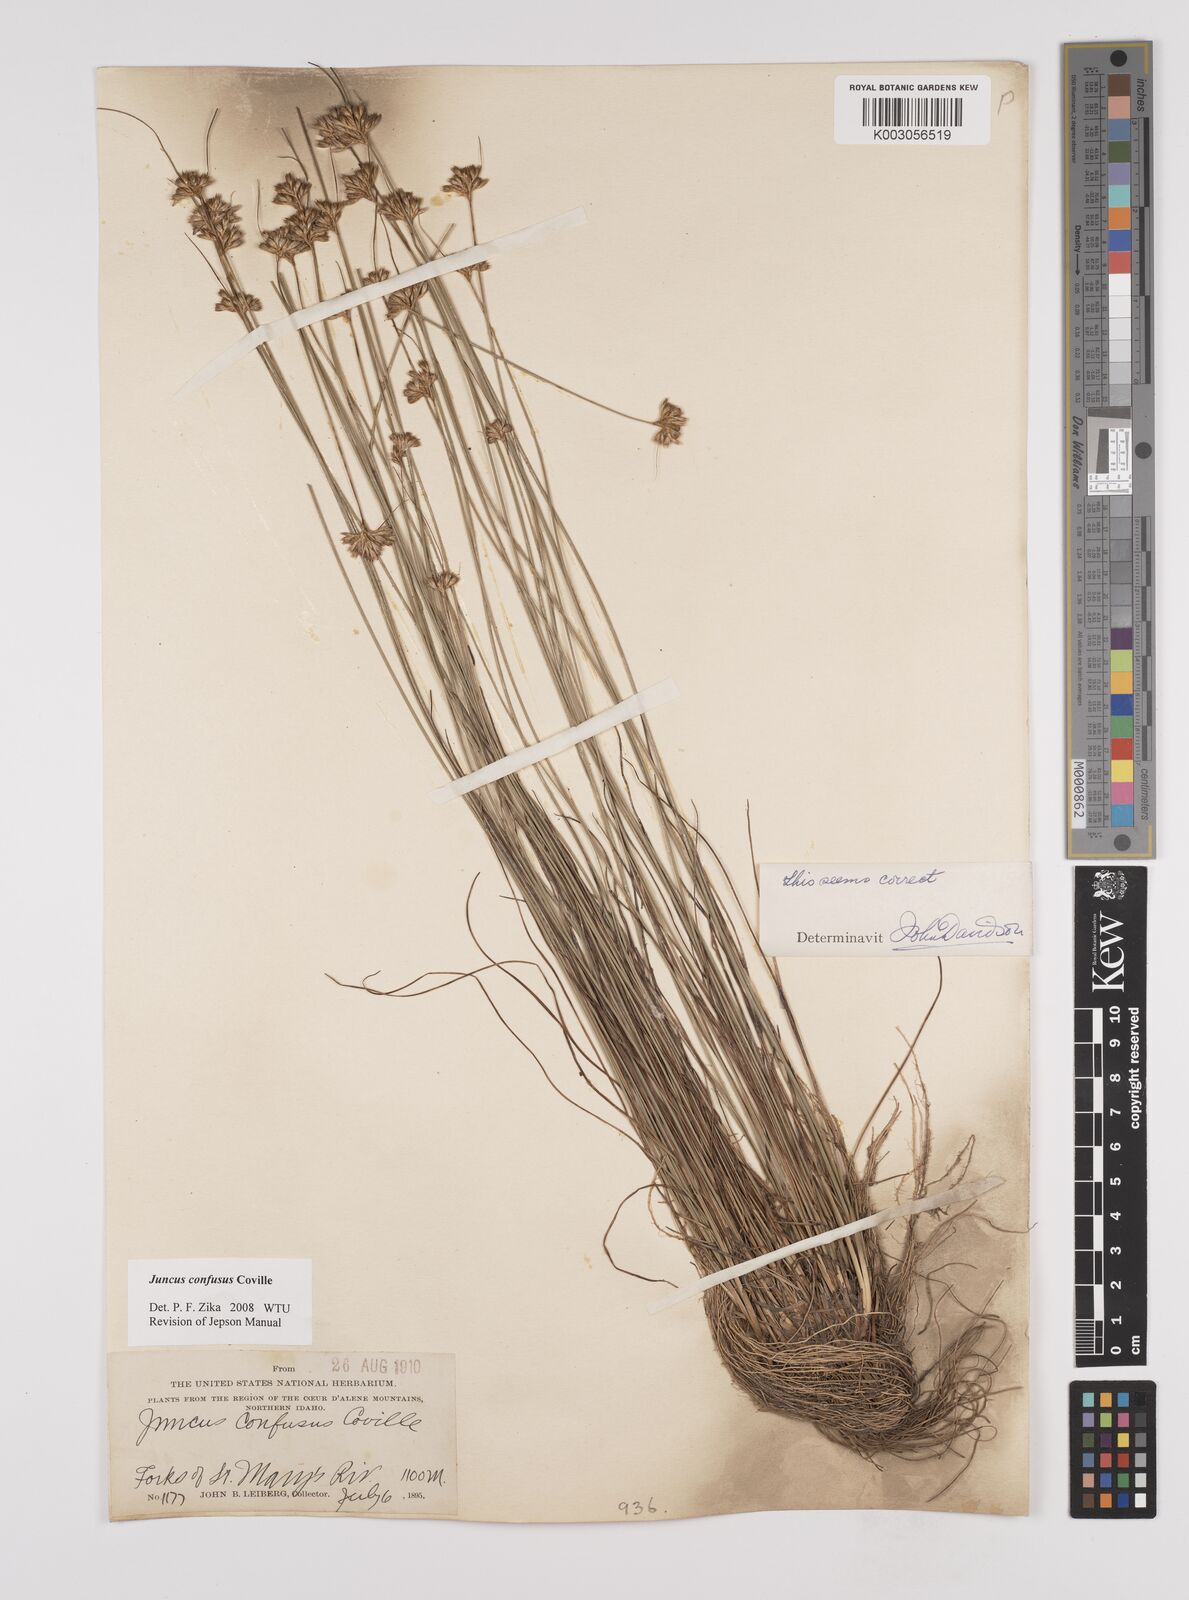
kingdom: Plantae
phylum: Tracheophyta
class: Liliopsida
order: Poales
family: Juncaceae
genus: Juncus
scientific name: Juncus confusus
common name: Colorado rush
